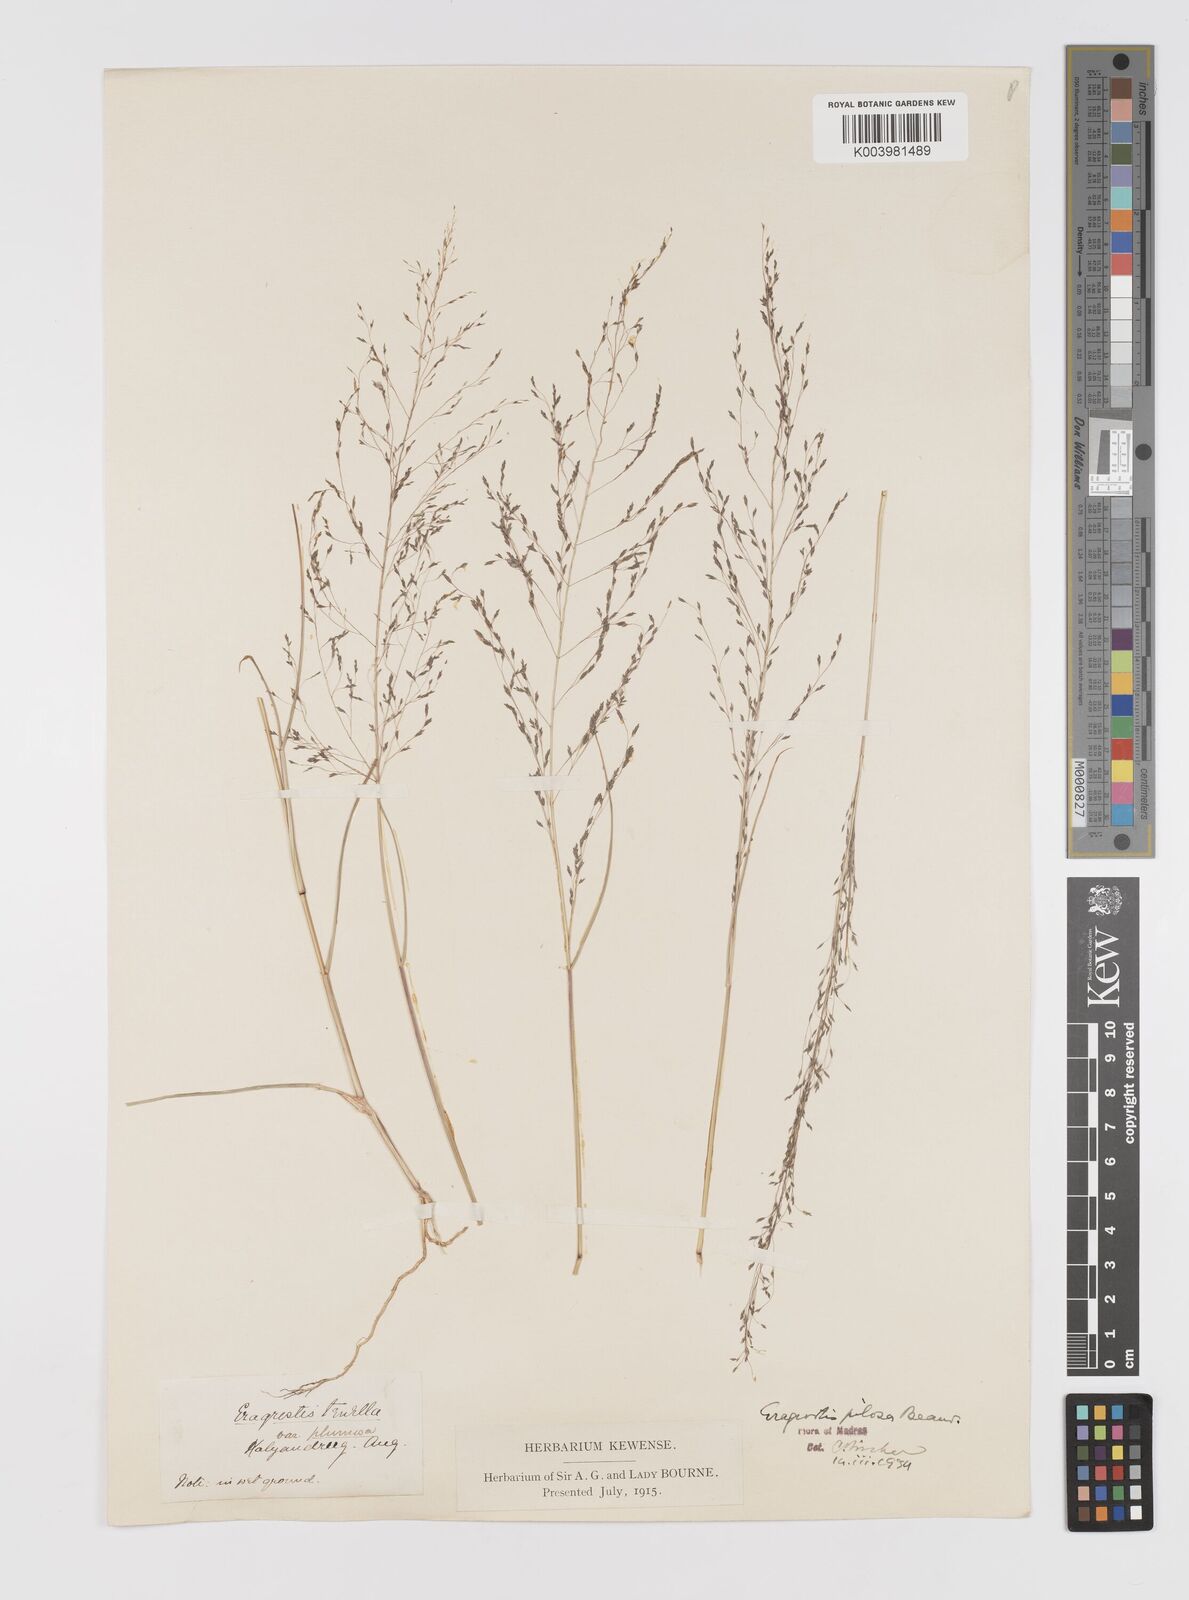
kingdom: Plantae
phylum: Tracheophyta
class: Liliopsida
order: Poales
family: Poaceae
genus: Eragrostis
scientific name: Eragrostis pilosa
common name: Indian lovegrass
